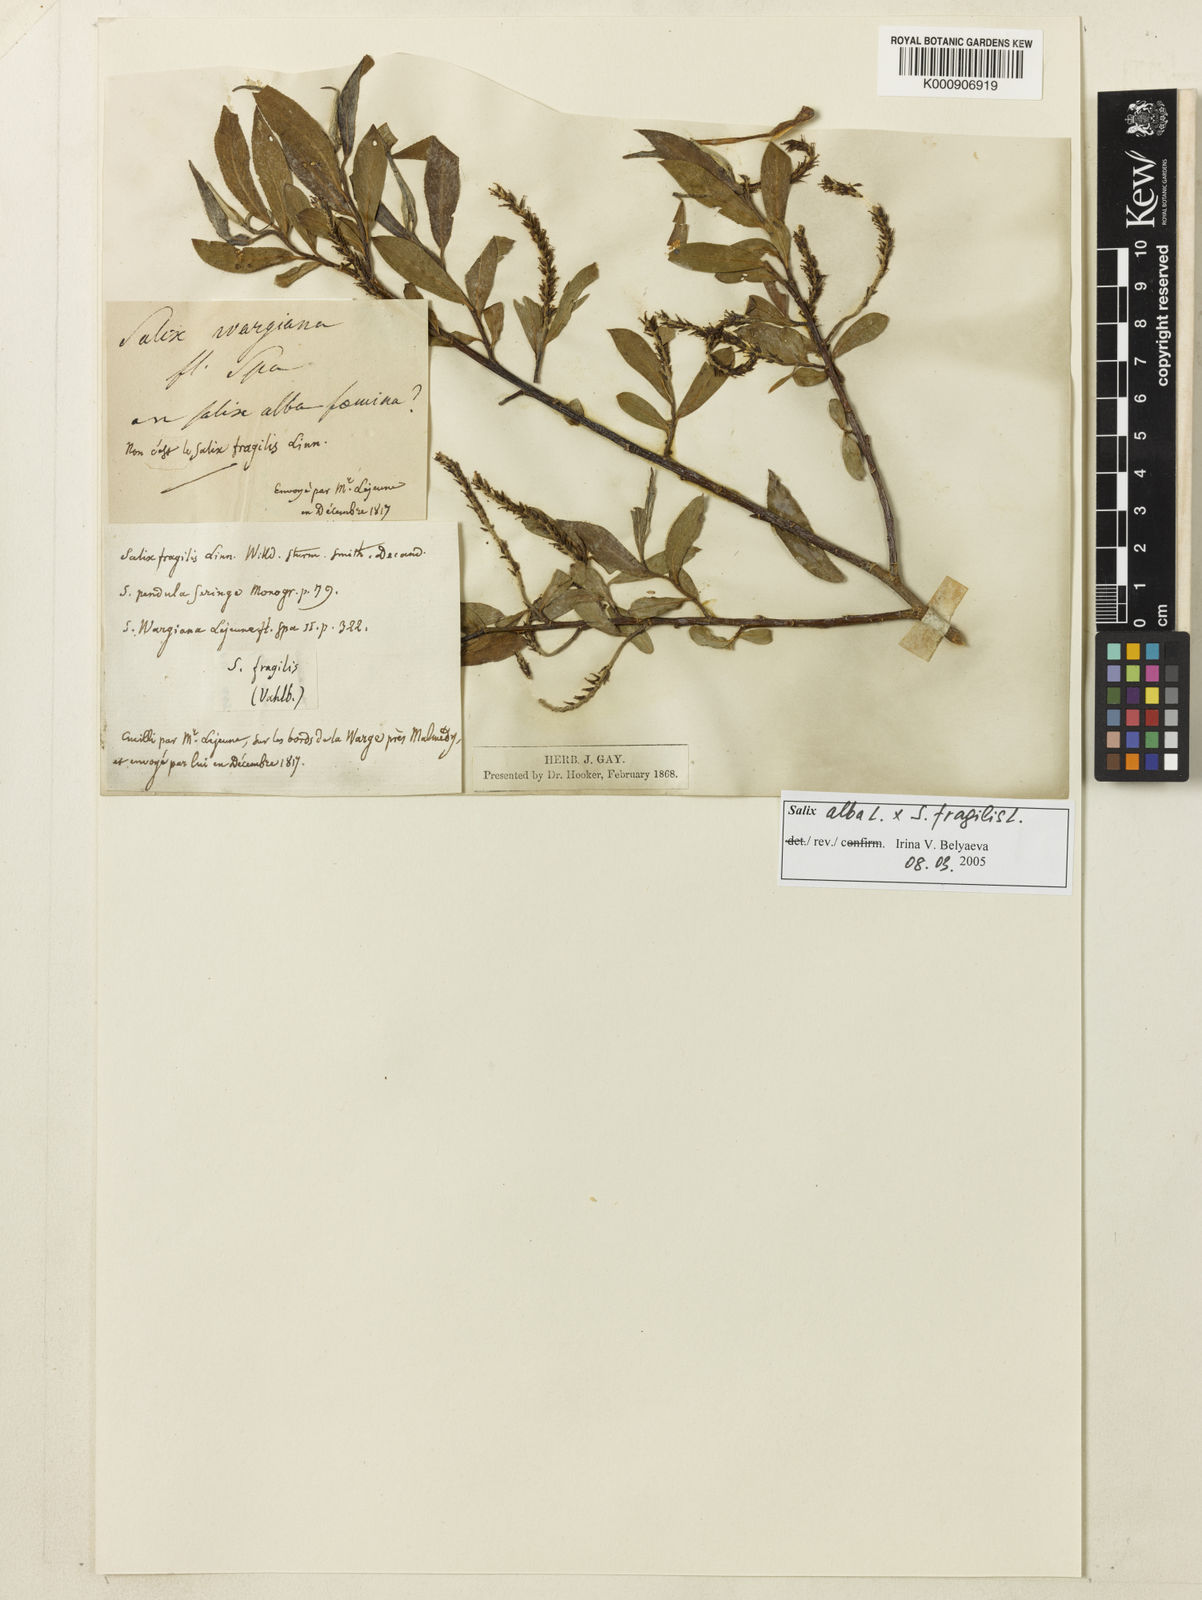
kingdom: Plantae
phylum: Tracheophyta
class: Magnoliopsida
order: Malpighiales
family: Salicaceae
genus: Salix
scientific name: Salix fragilis
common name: Crack willow
